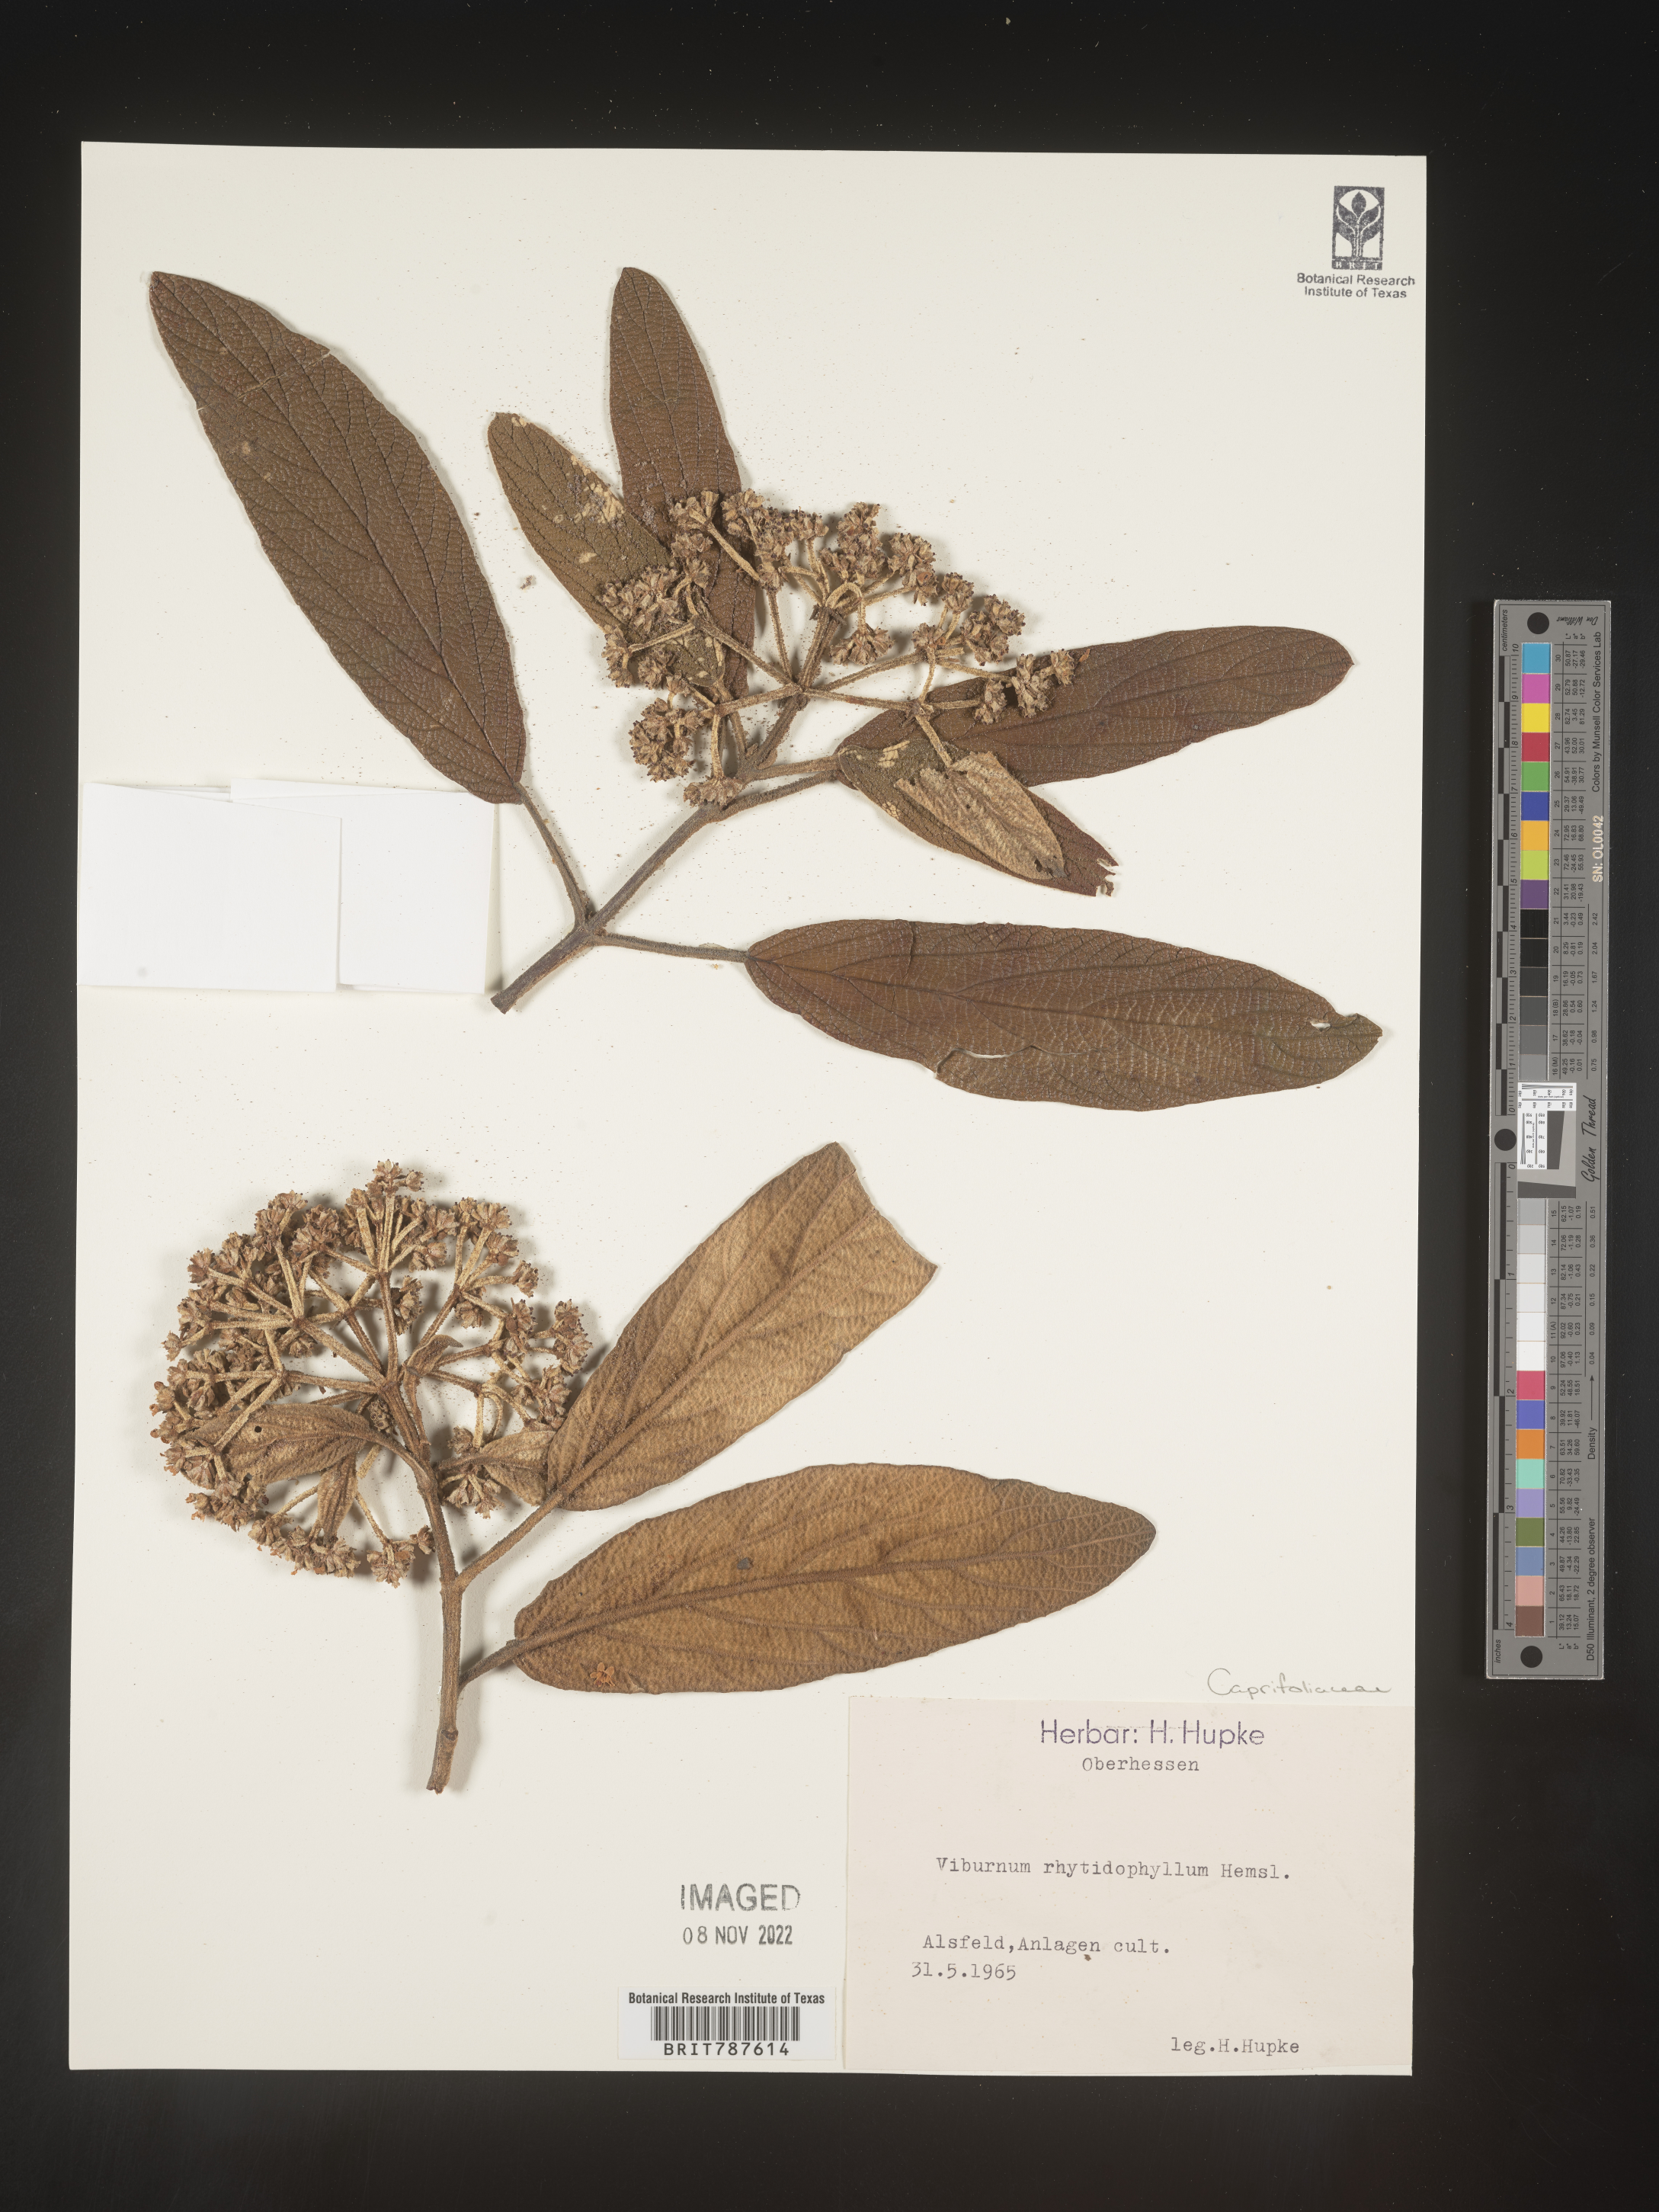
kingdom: Plantae
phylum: Tracheophyta
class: Magnoliopsida
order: Dipsacales
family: Viburnaceae
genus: Viburnum
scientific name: Viburnum
